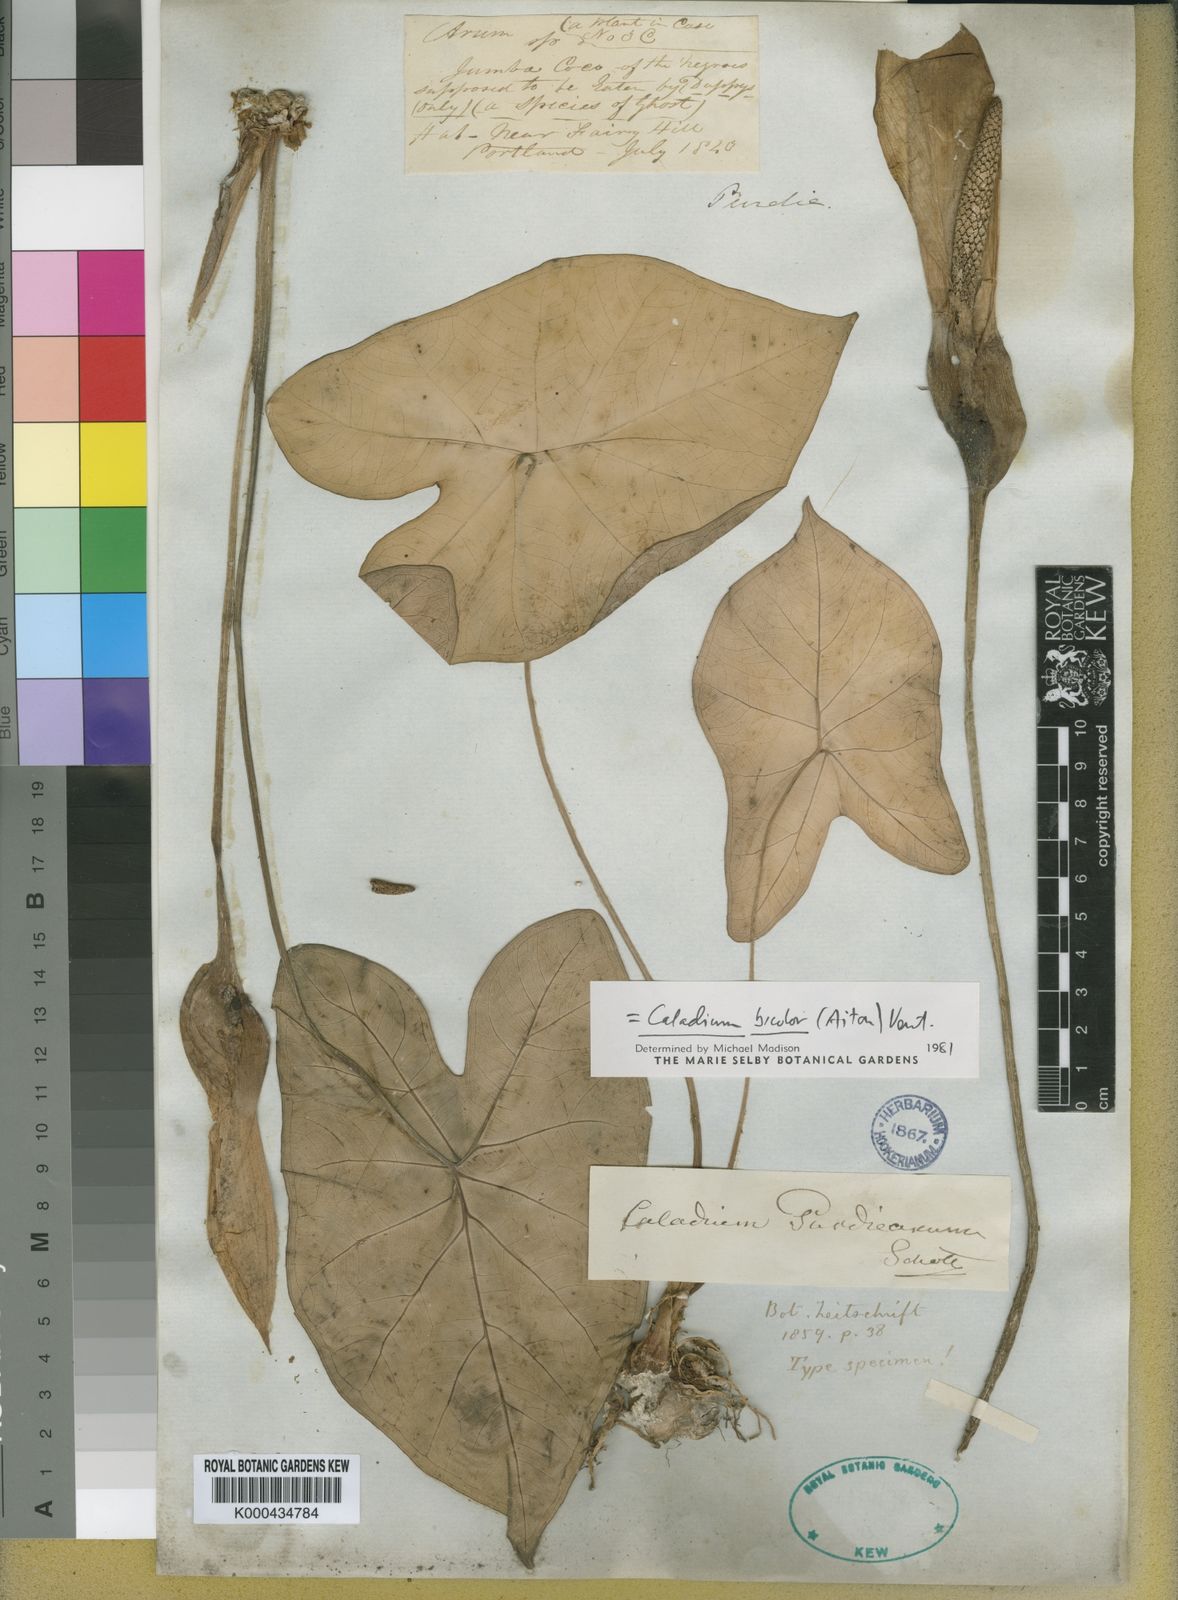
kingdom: Plantae
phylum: Tracheophyta
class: Liliopsida
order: Alismatales
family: Araceae
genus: Caladium
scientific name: Caladium bicolor
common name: Artist's pallet
